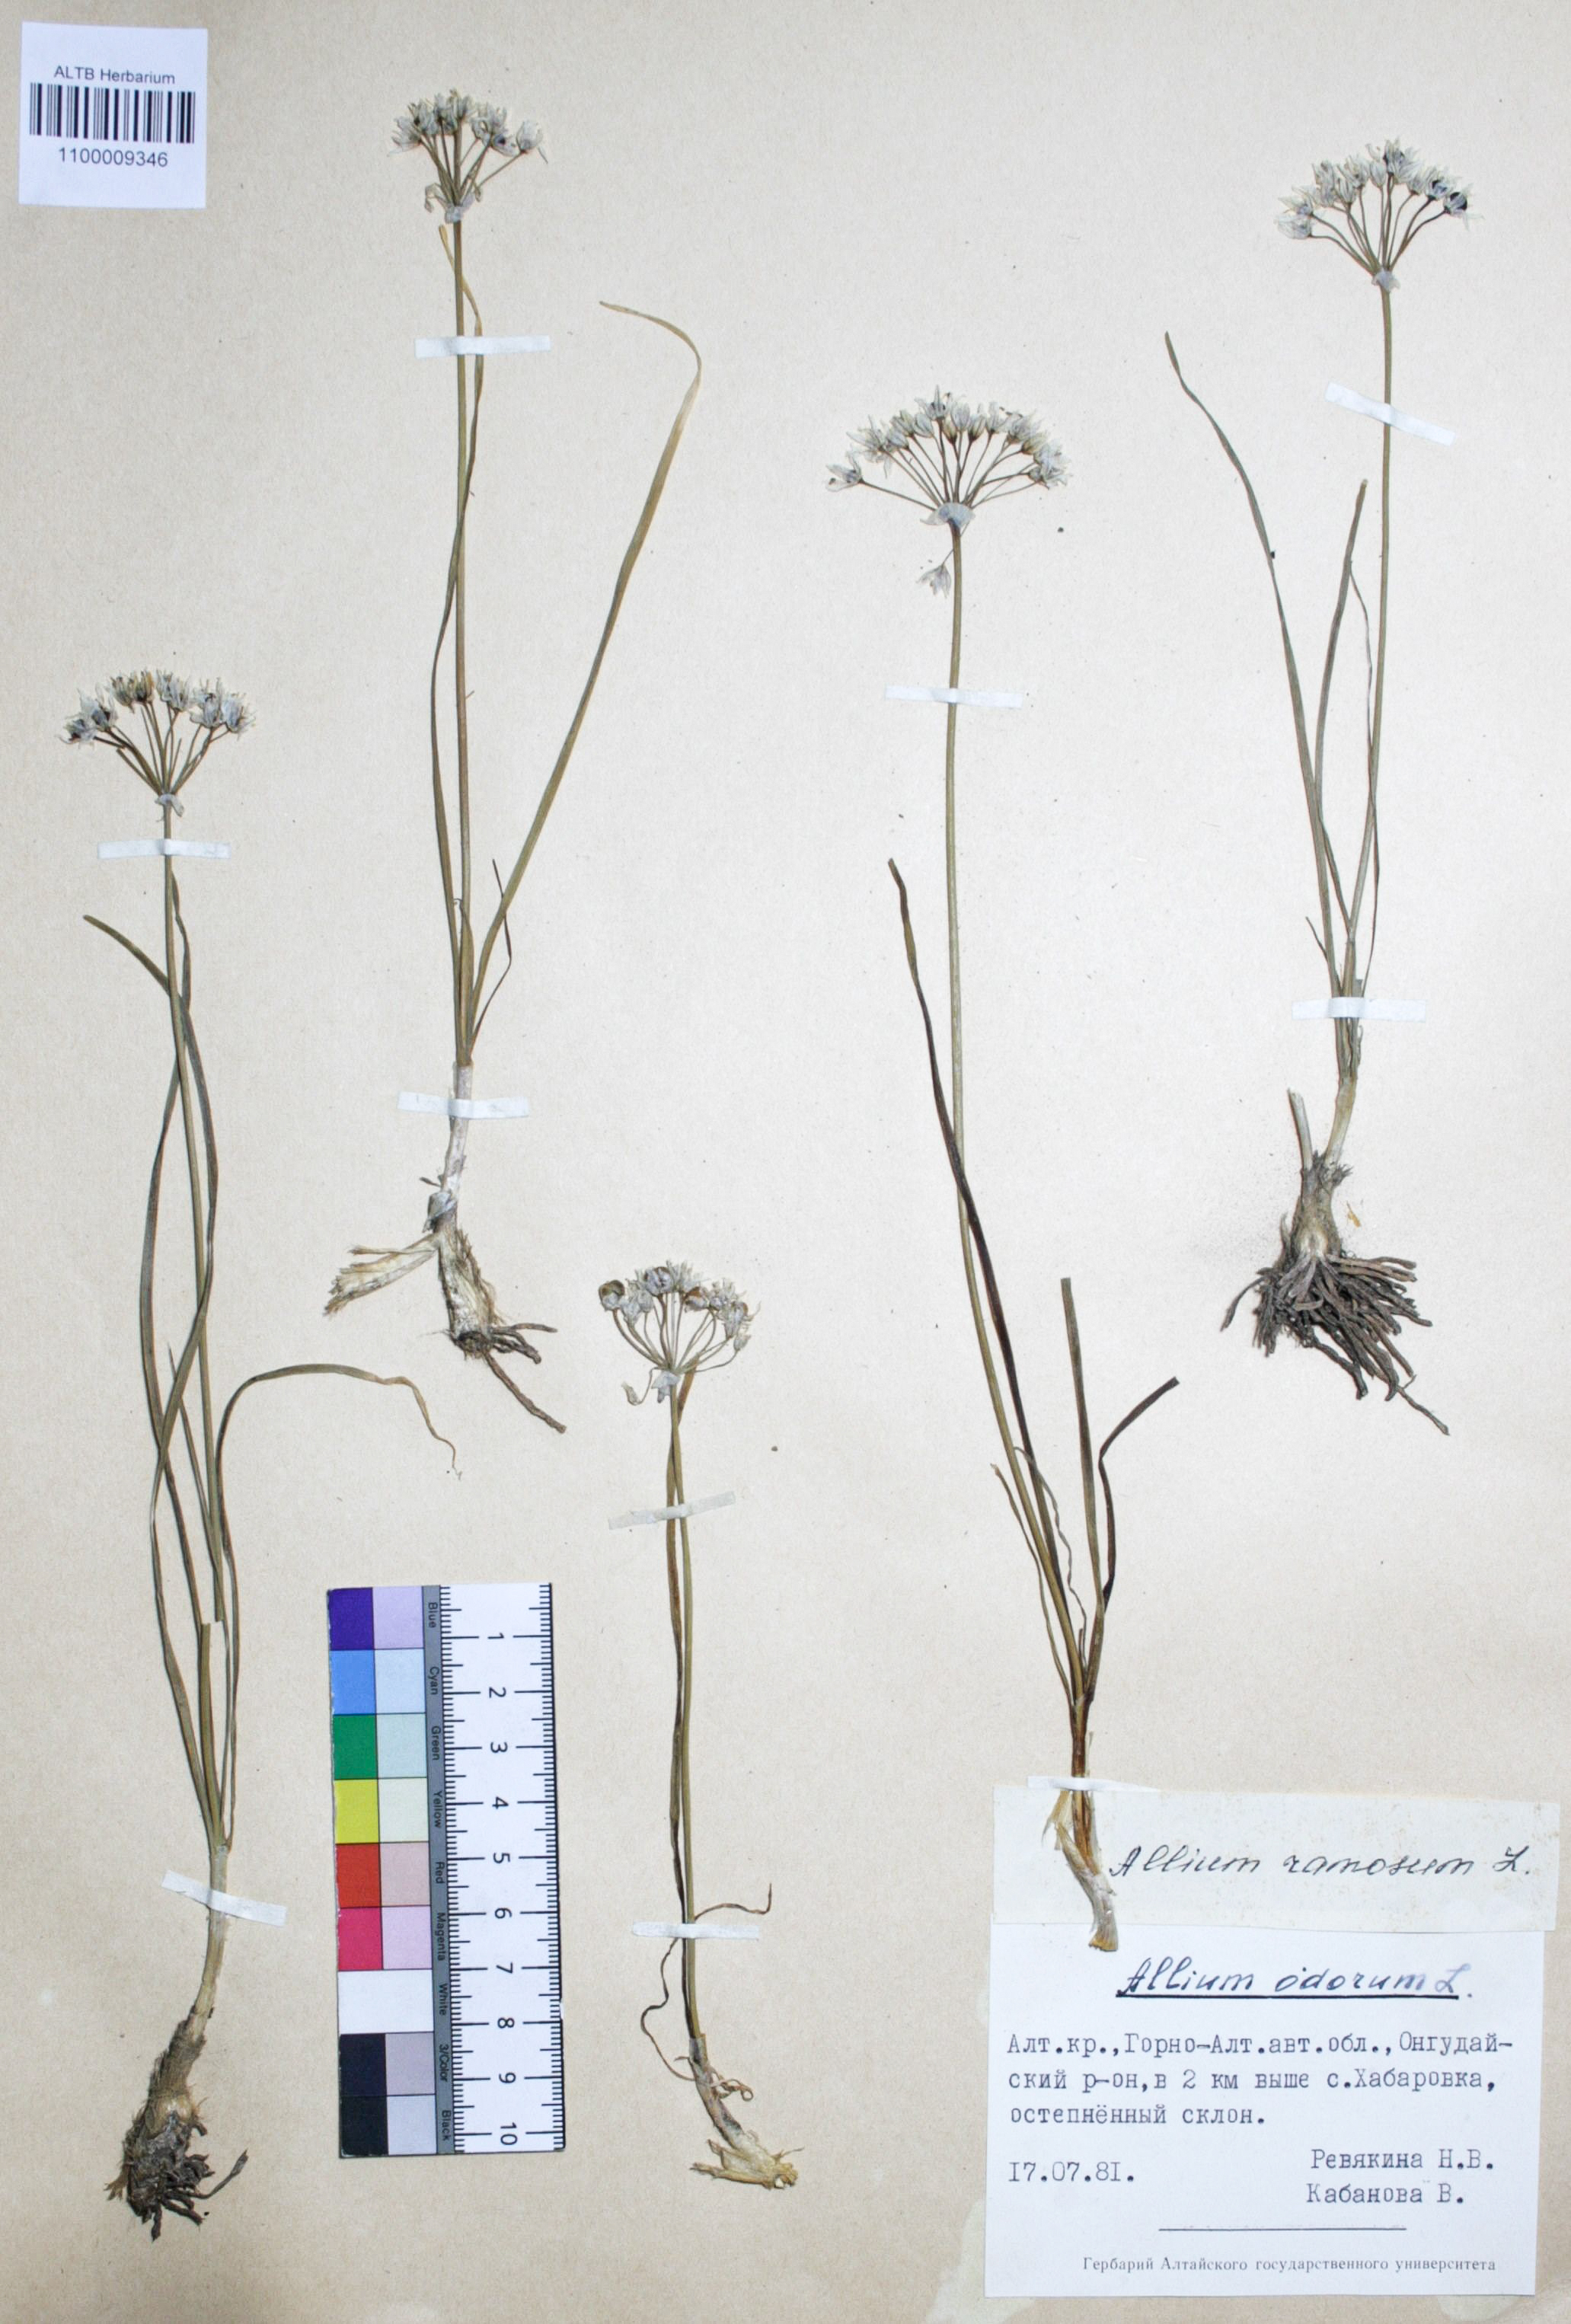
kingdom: Plantae
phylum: Tracheophyta
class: Liliopsida
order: Asparagales
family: Amaryllidaceae
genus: Allium
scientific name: Allium ramosum
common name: Fragrant garlic
